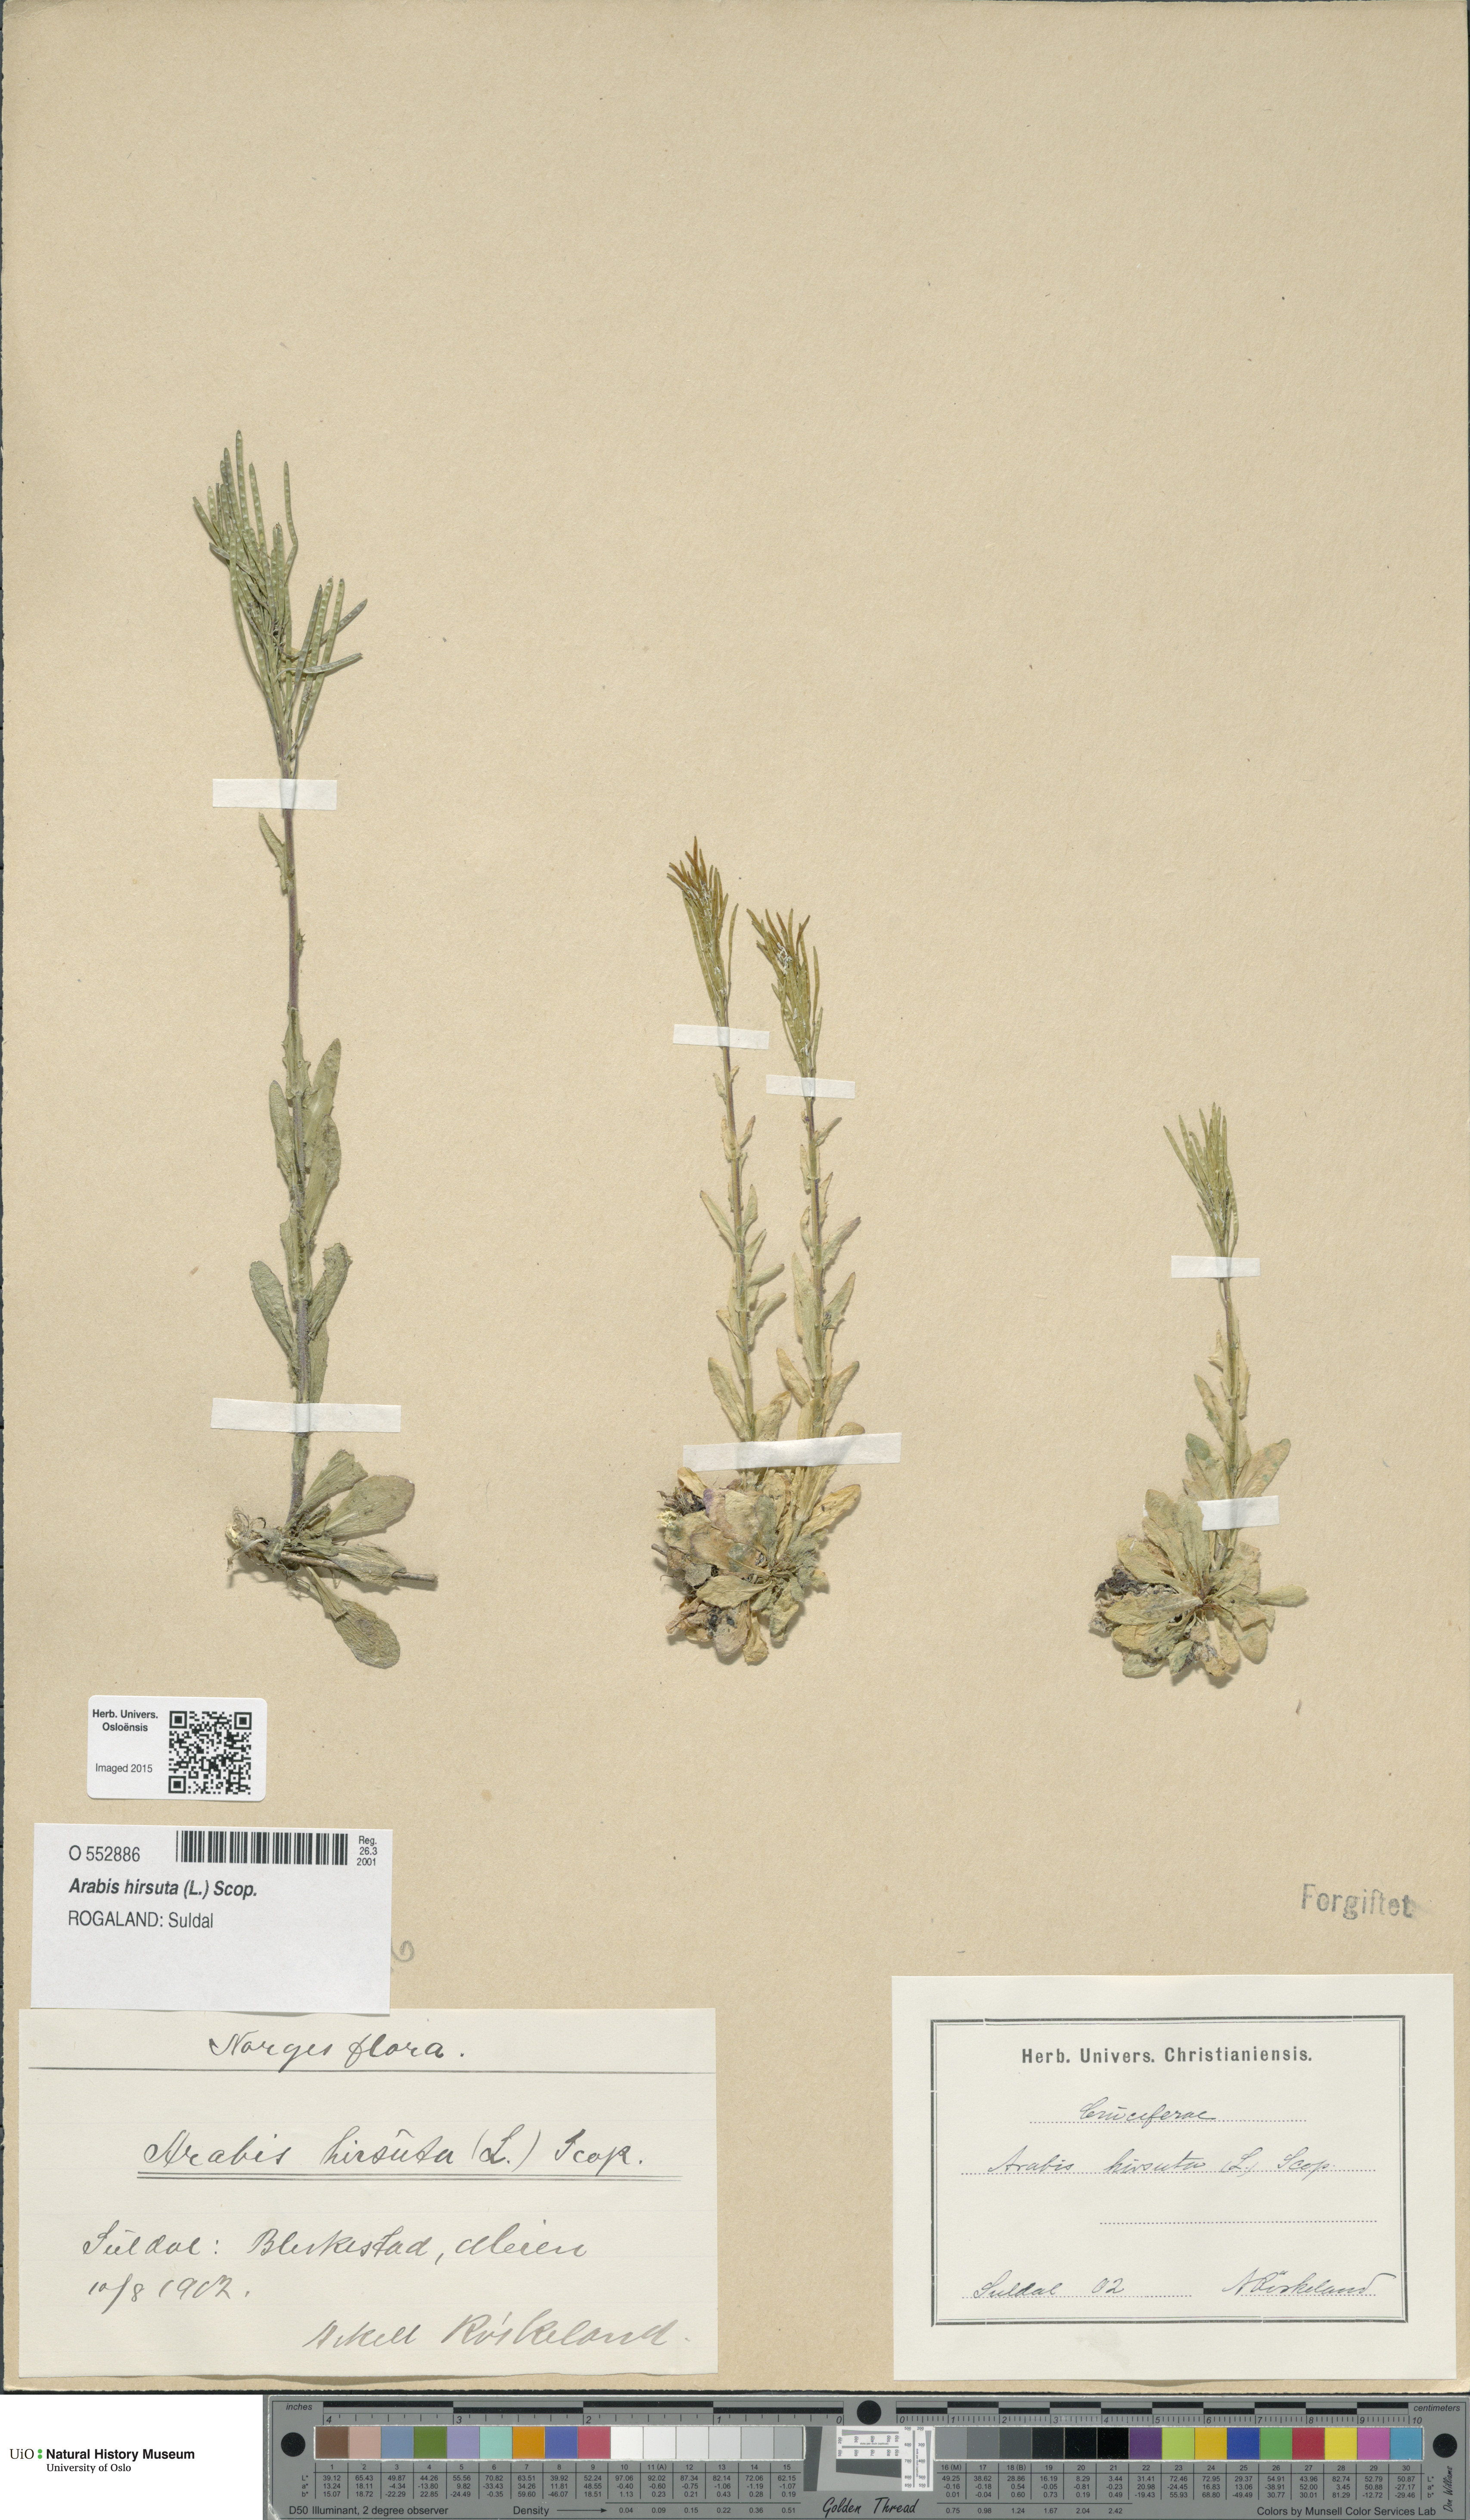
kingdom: Plantae
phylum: Tracheophyta
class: Magnoliopsida
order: Brassicales
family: Brassicaceae
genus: Arabis
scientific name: Arabis hirsuta
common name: Hairy rock-cress
